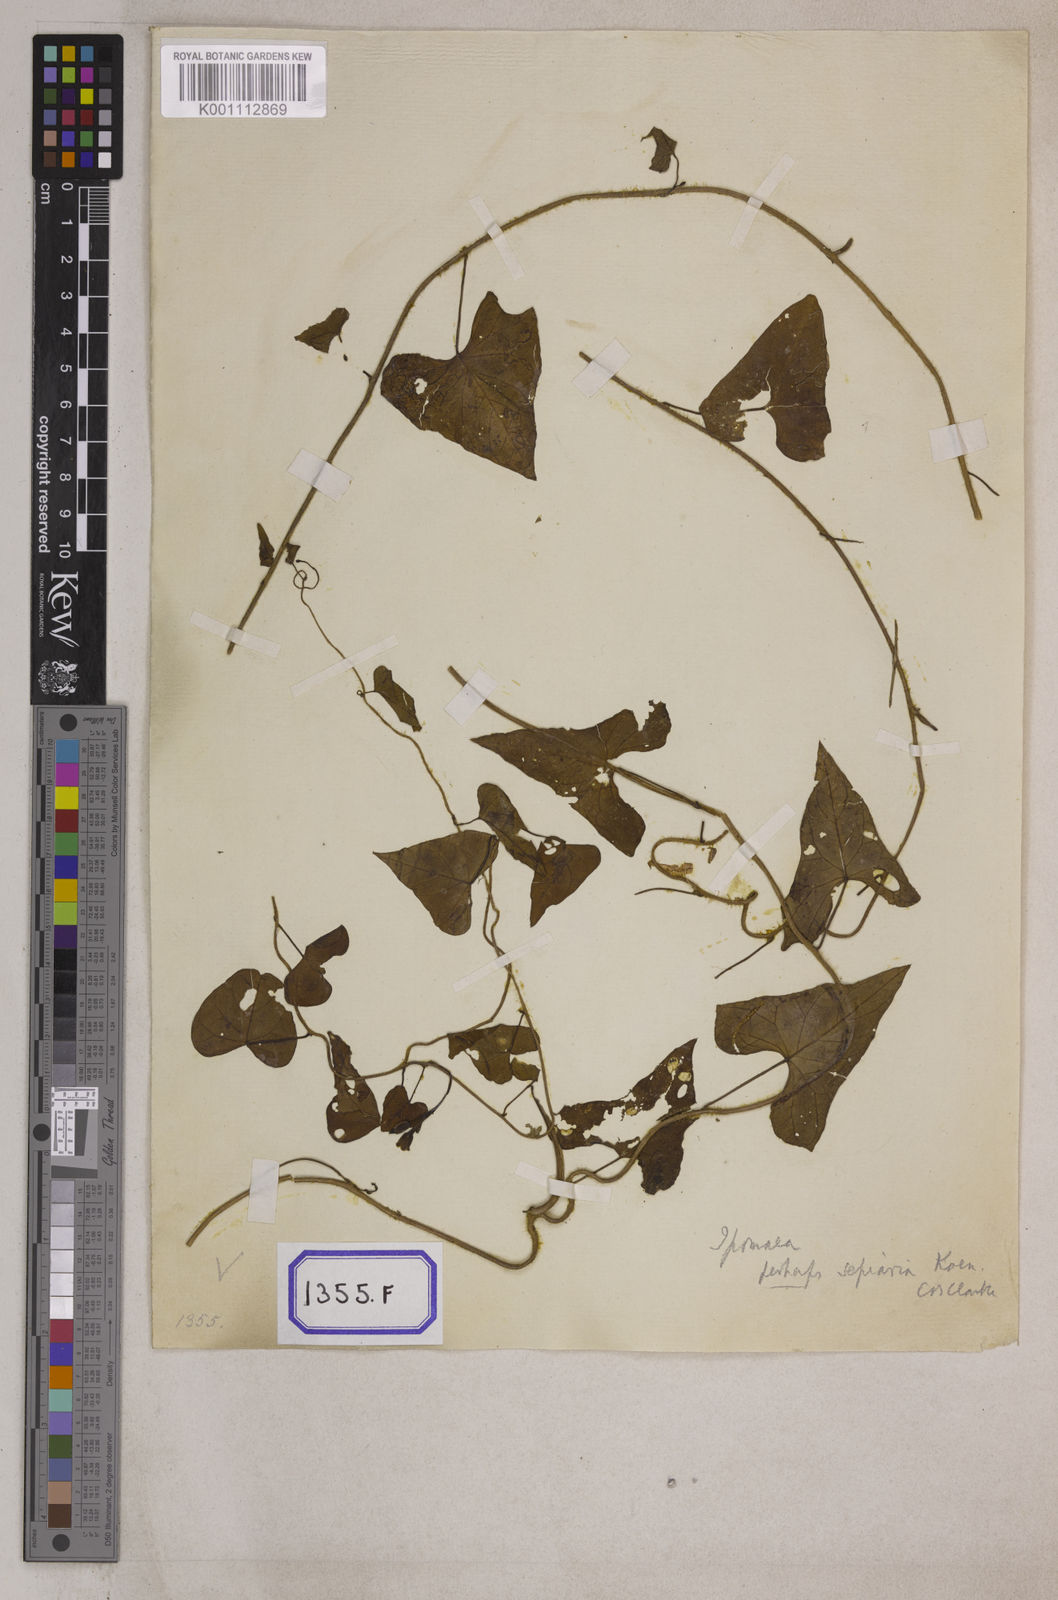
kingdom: Plantae
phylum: Tracheophyta
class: Magnoliopsida
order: Solanales
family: Convolvulaceae
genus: Calystegia
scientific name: Calystegia sepium
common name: Hedge bindweed
